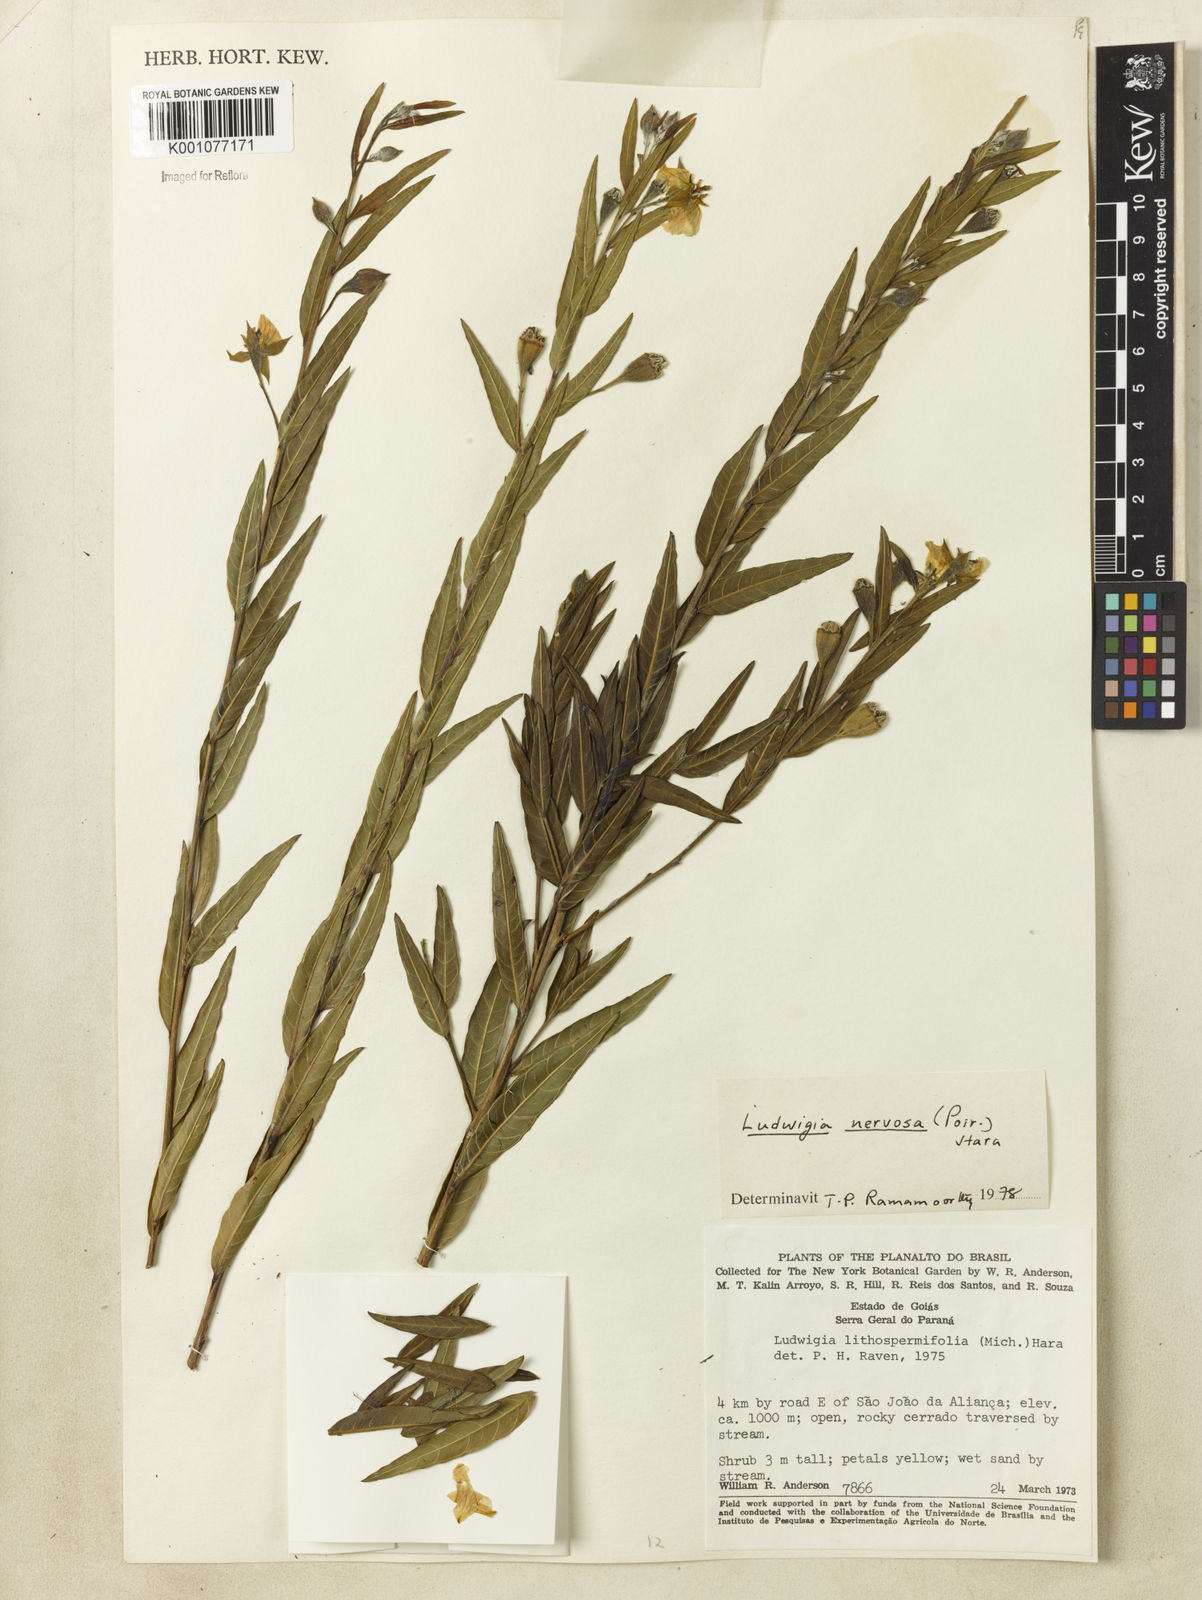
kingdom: Plantae
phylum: Tracheophyta
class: Magnoliopsida
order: Myrtales
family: Onagraceae
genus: Ludwigia
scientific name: Ludwigia nervosa
